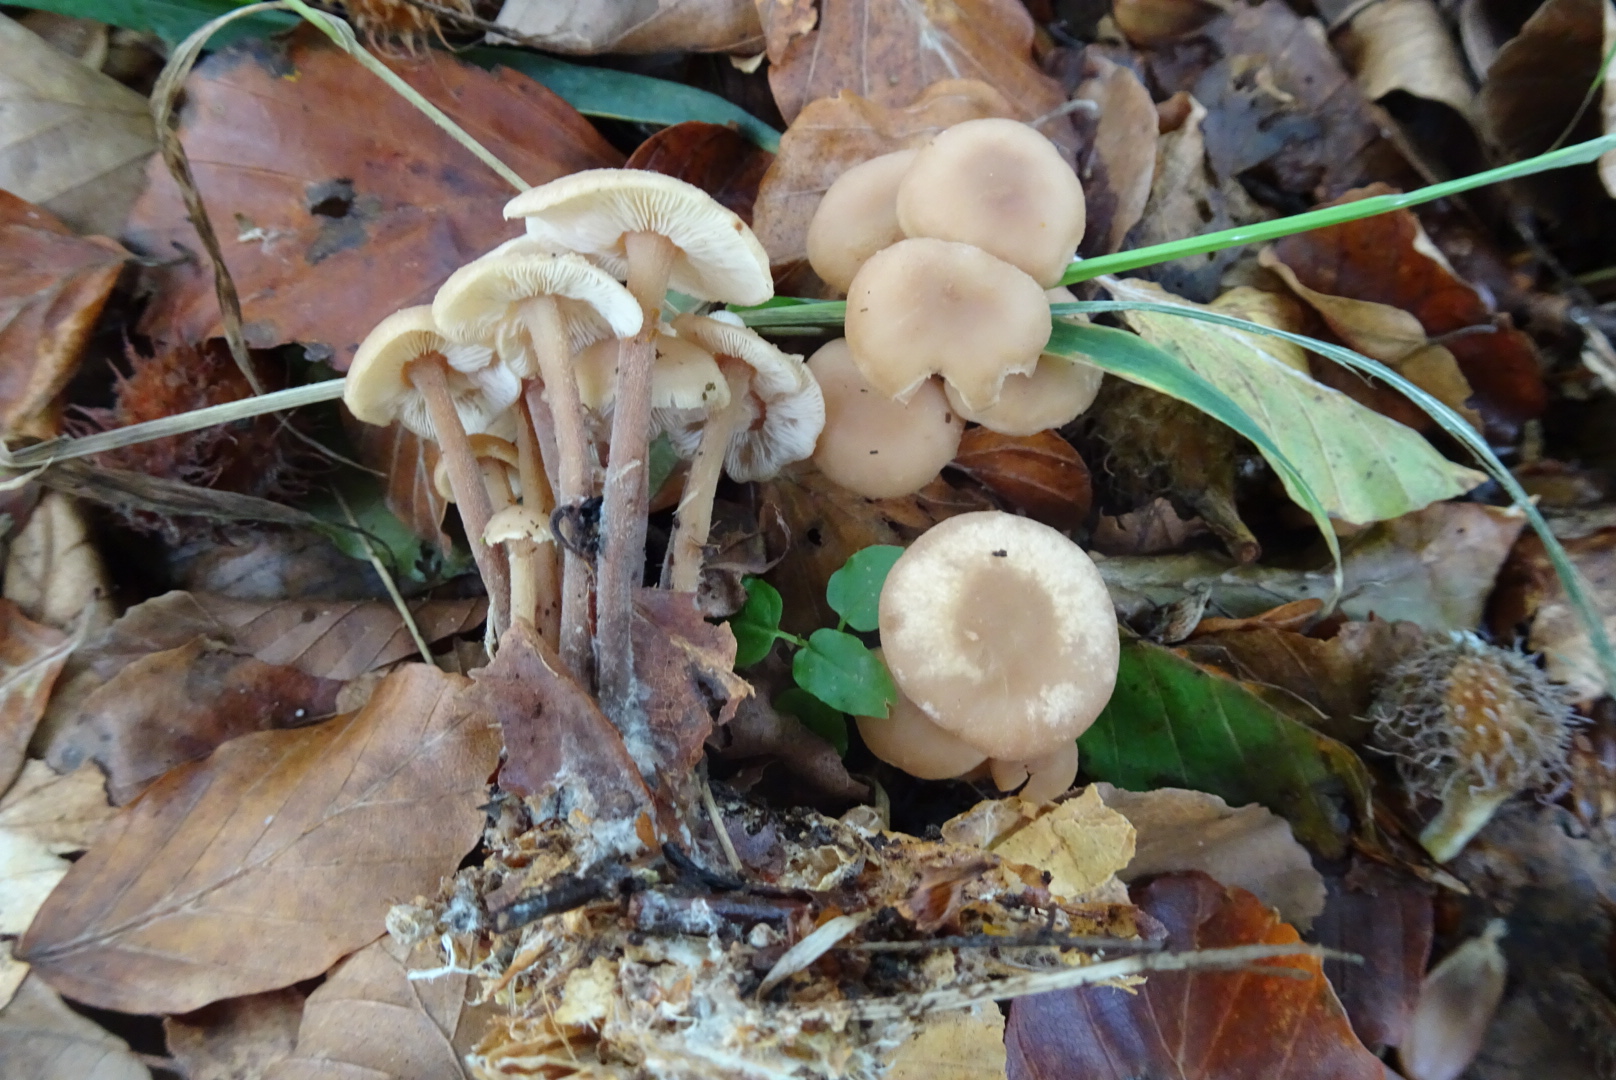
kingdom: Fungi
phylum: Basidiomycota
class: Agaricomycetes
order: Agaricales
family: Omphalotaceae
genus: Collybiopsis
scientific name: Collybiopsis confluens
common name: knippe-fladhat
